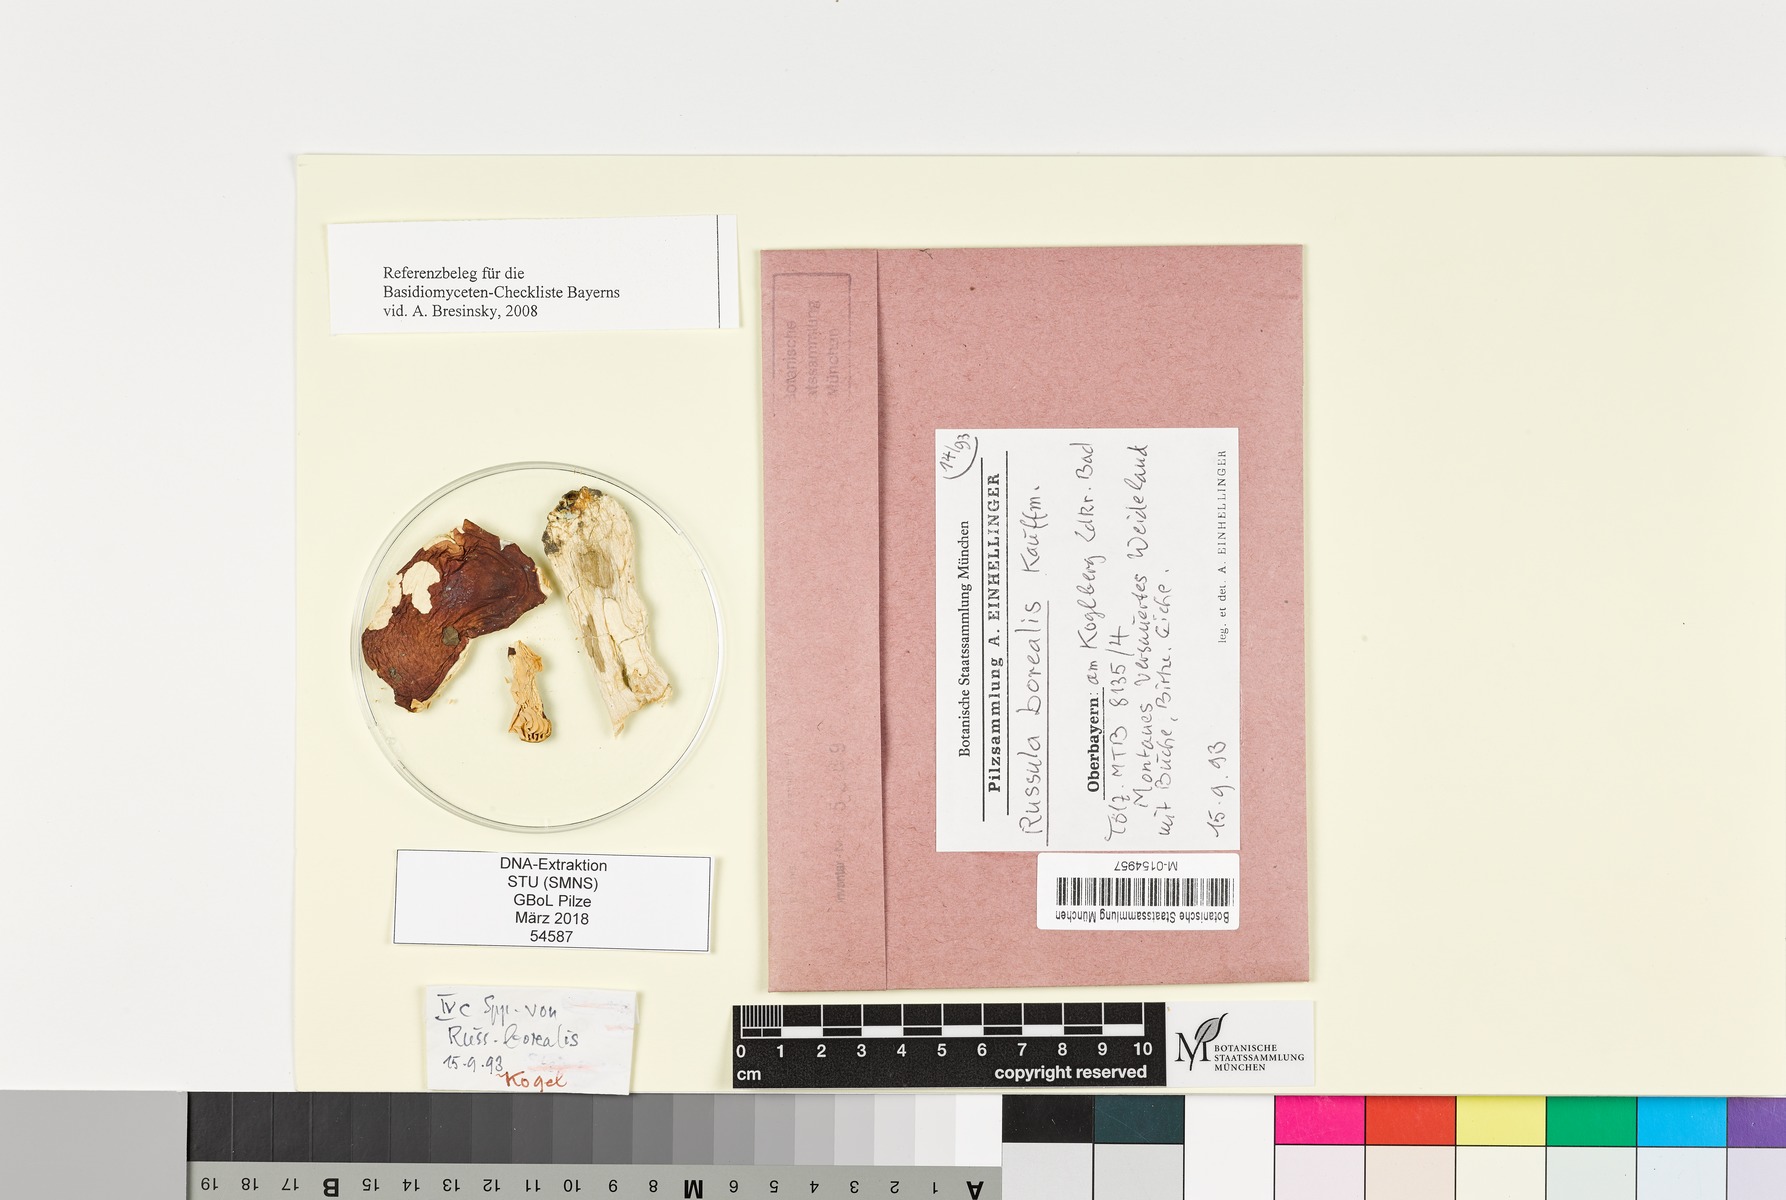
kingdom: Fungi
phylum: Basidiomycota
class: Agaricomycetes
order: Russulales
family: Russulaceae
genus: Russula
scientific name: Russula borealis
